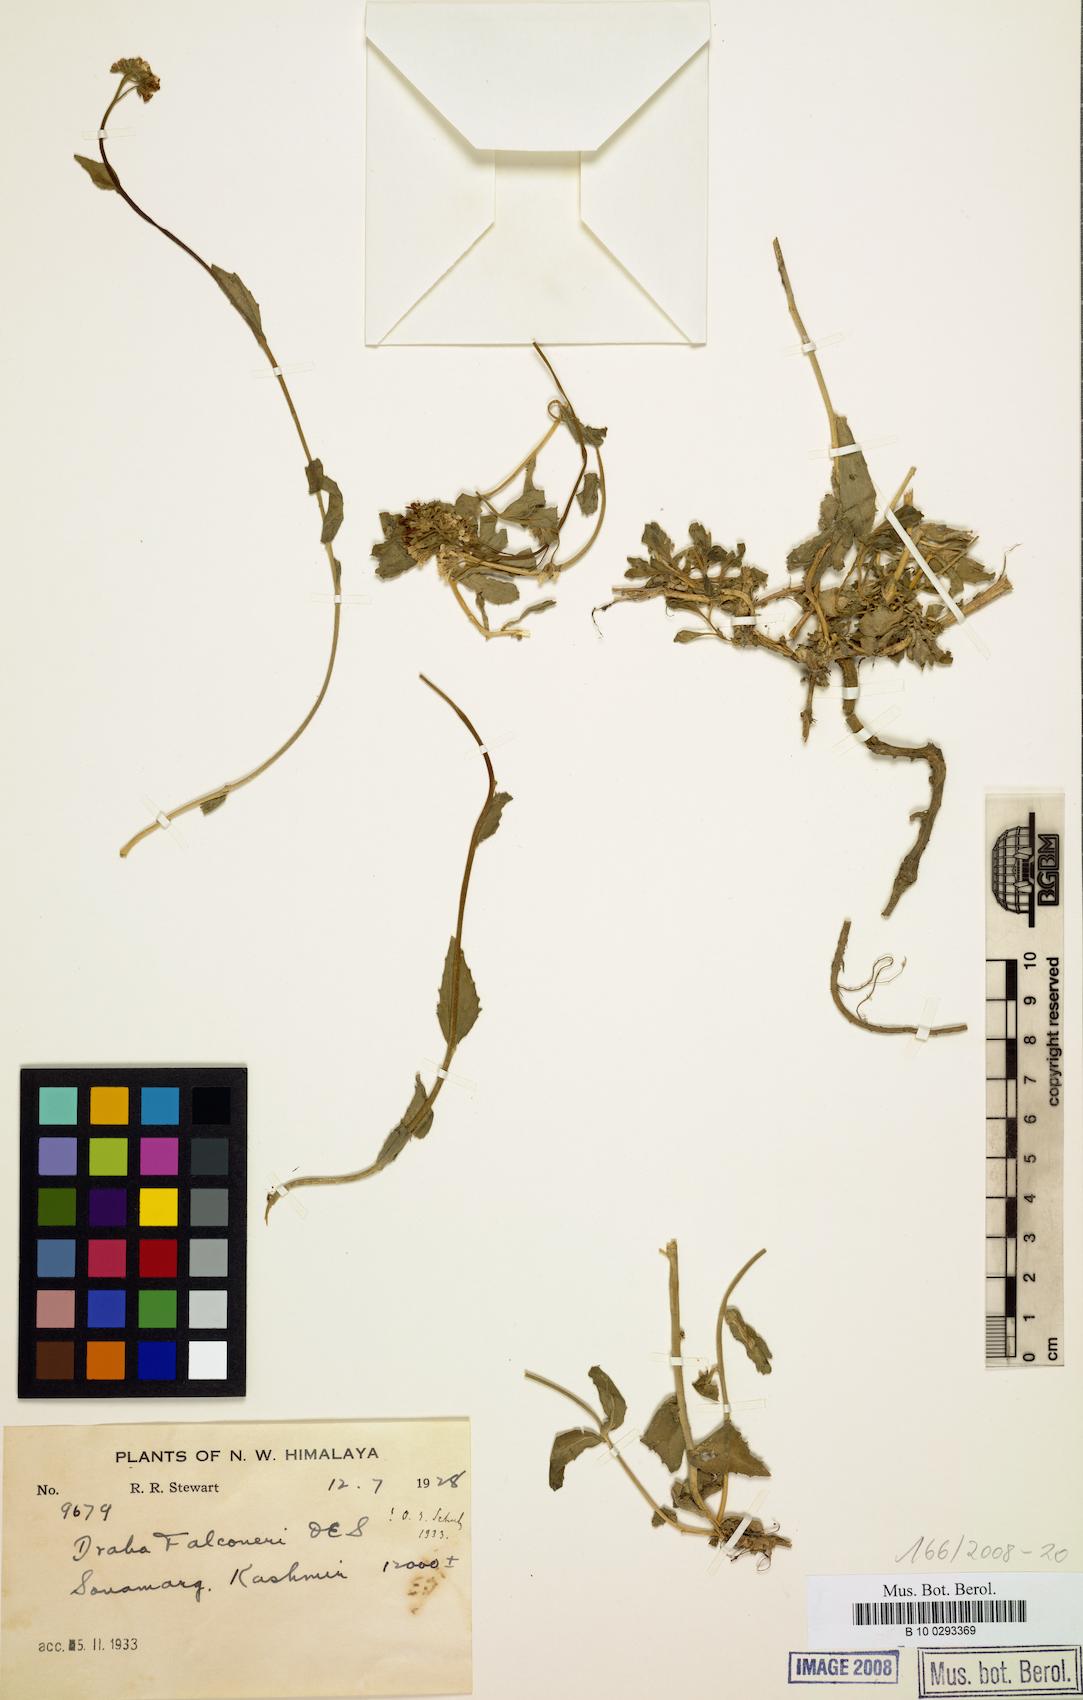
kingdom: Plantae
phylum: Tracheophyta
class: Magnoliopsida
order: Brassicales
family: Brassicaceae
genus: Draba
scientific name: Draba falconeri
